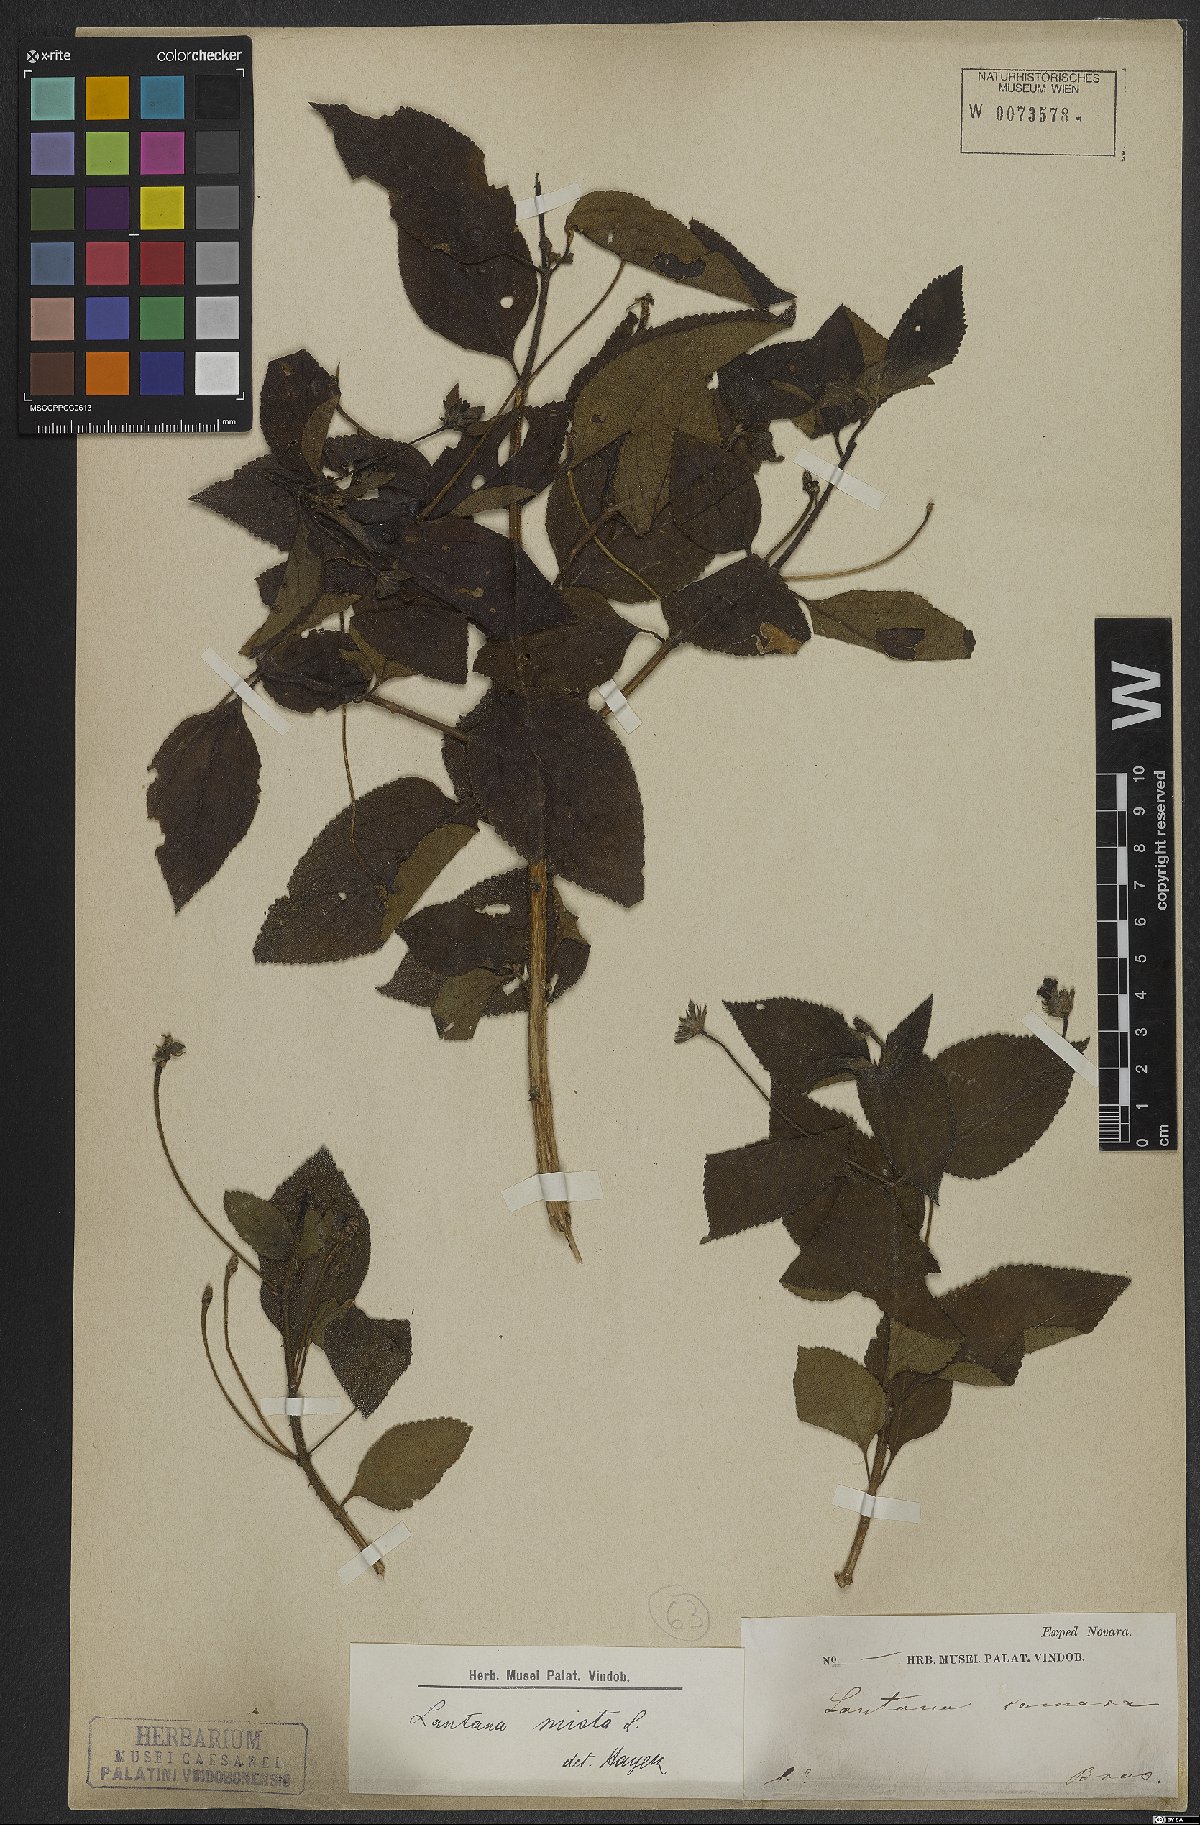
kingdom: Plantae
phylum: Tracheophyta
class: Magnoliopsida
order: Lamiales
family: Verbenaceae
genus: Lantana
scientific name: Lantana mista
